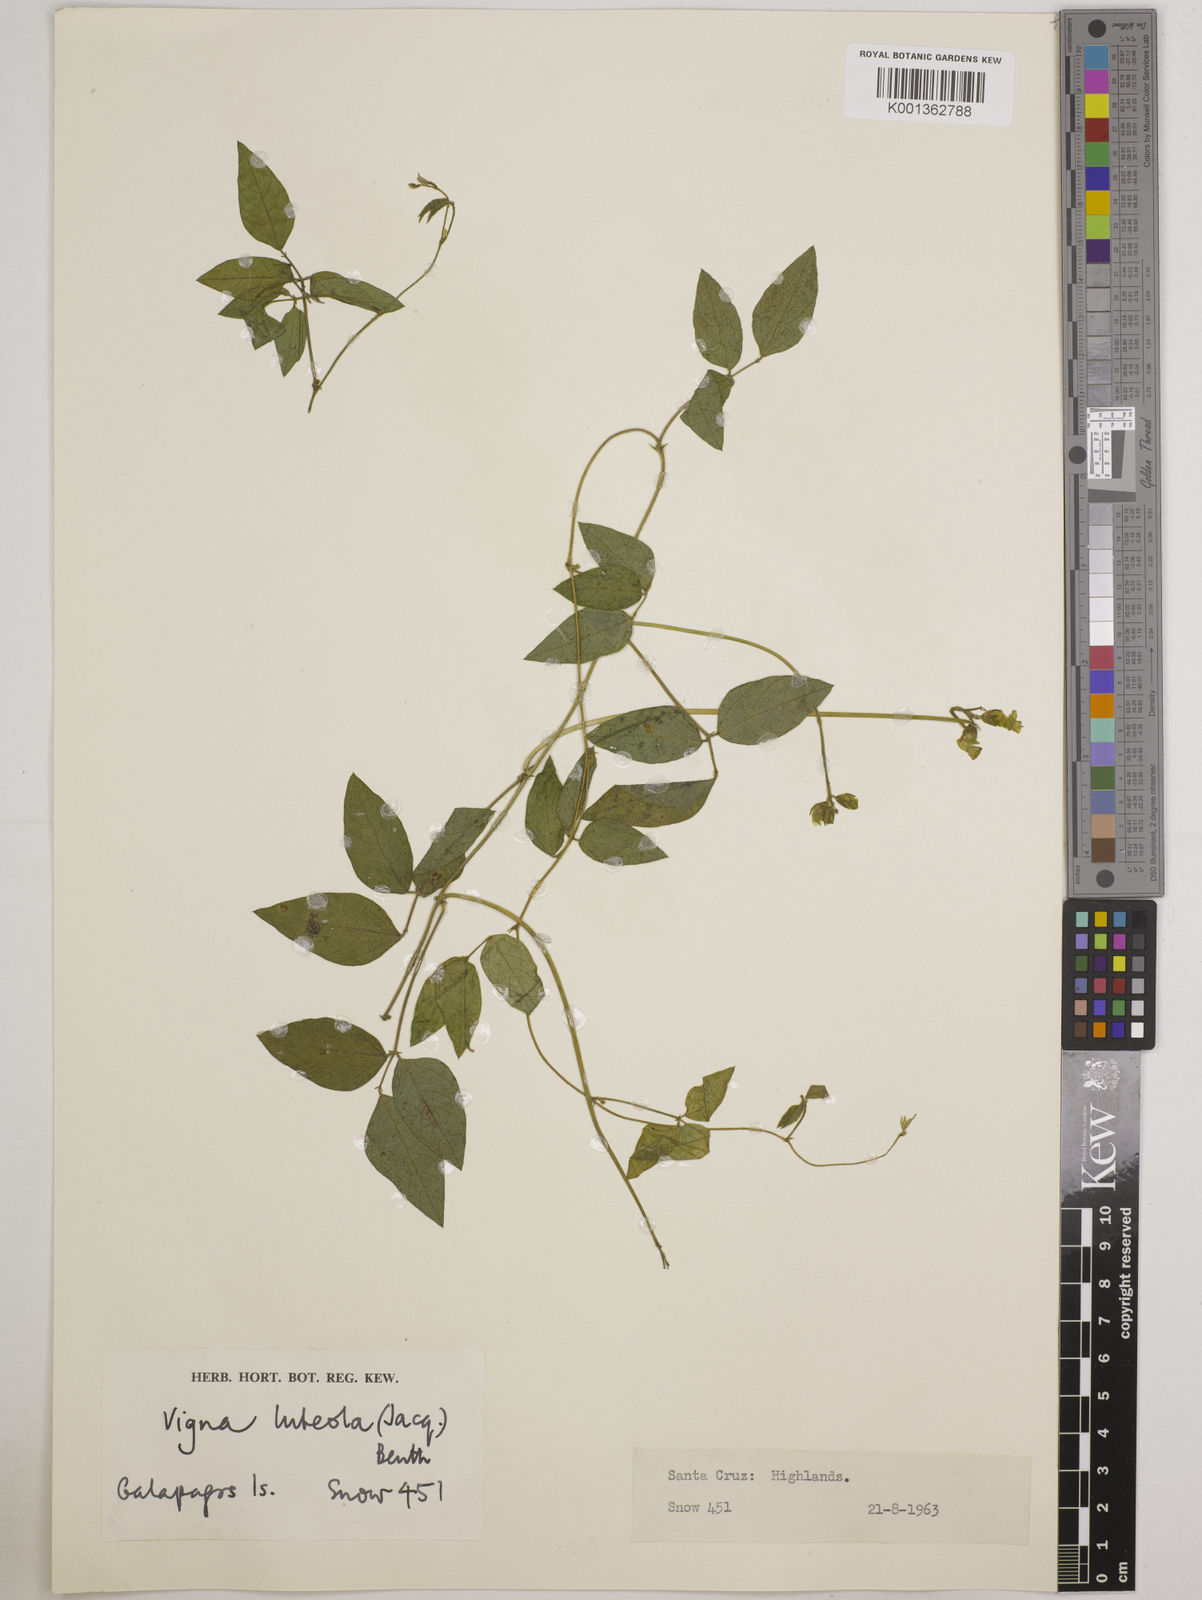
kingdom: Plantae
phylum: Tracheophyta
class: Magnoliopsida
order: Fabales
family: Fabaceae
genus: Vigna
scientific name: Vigna luteola
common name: Hairypod cowpea
